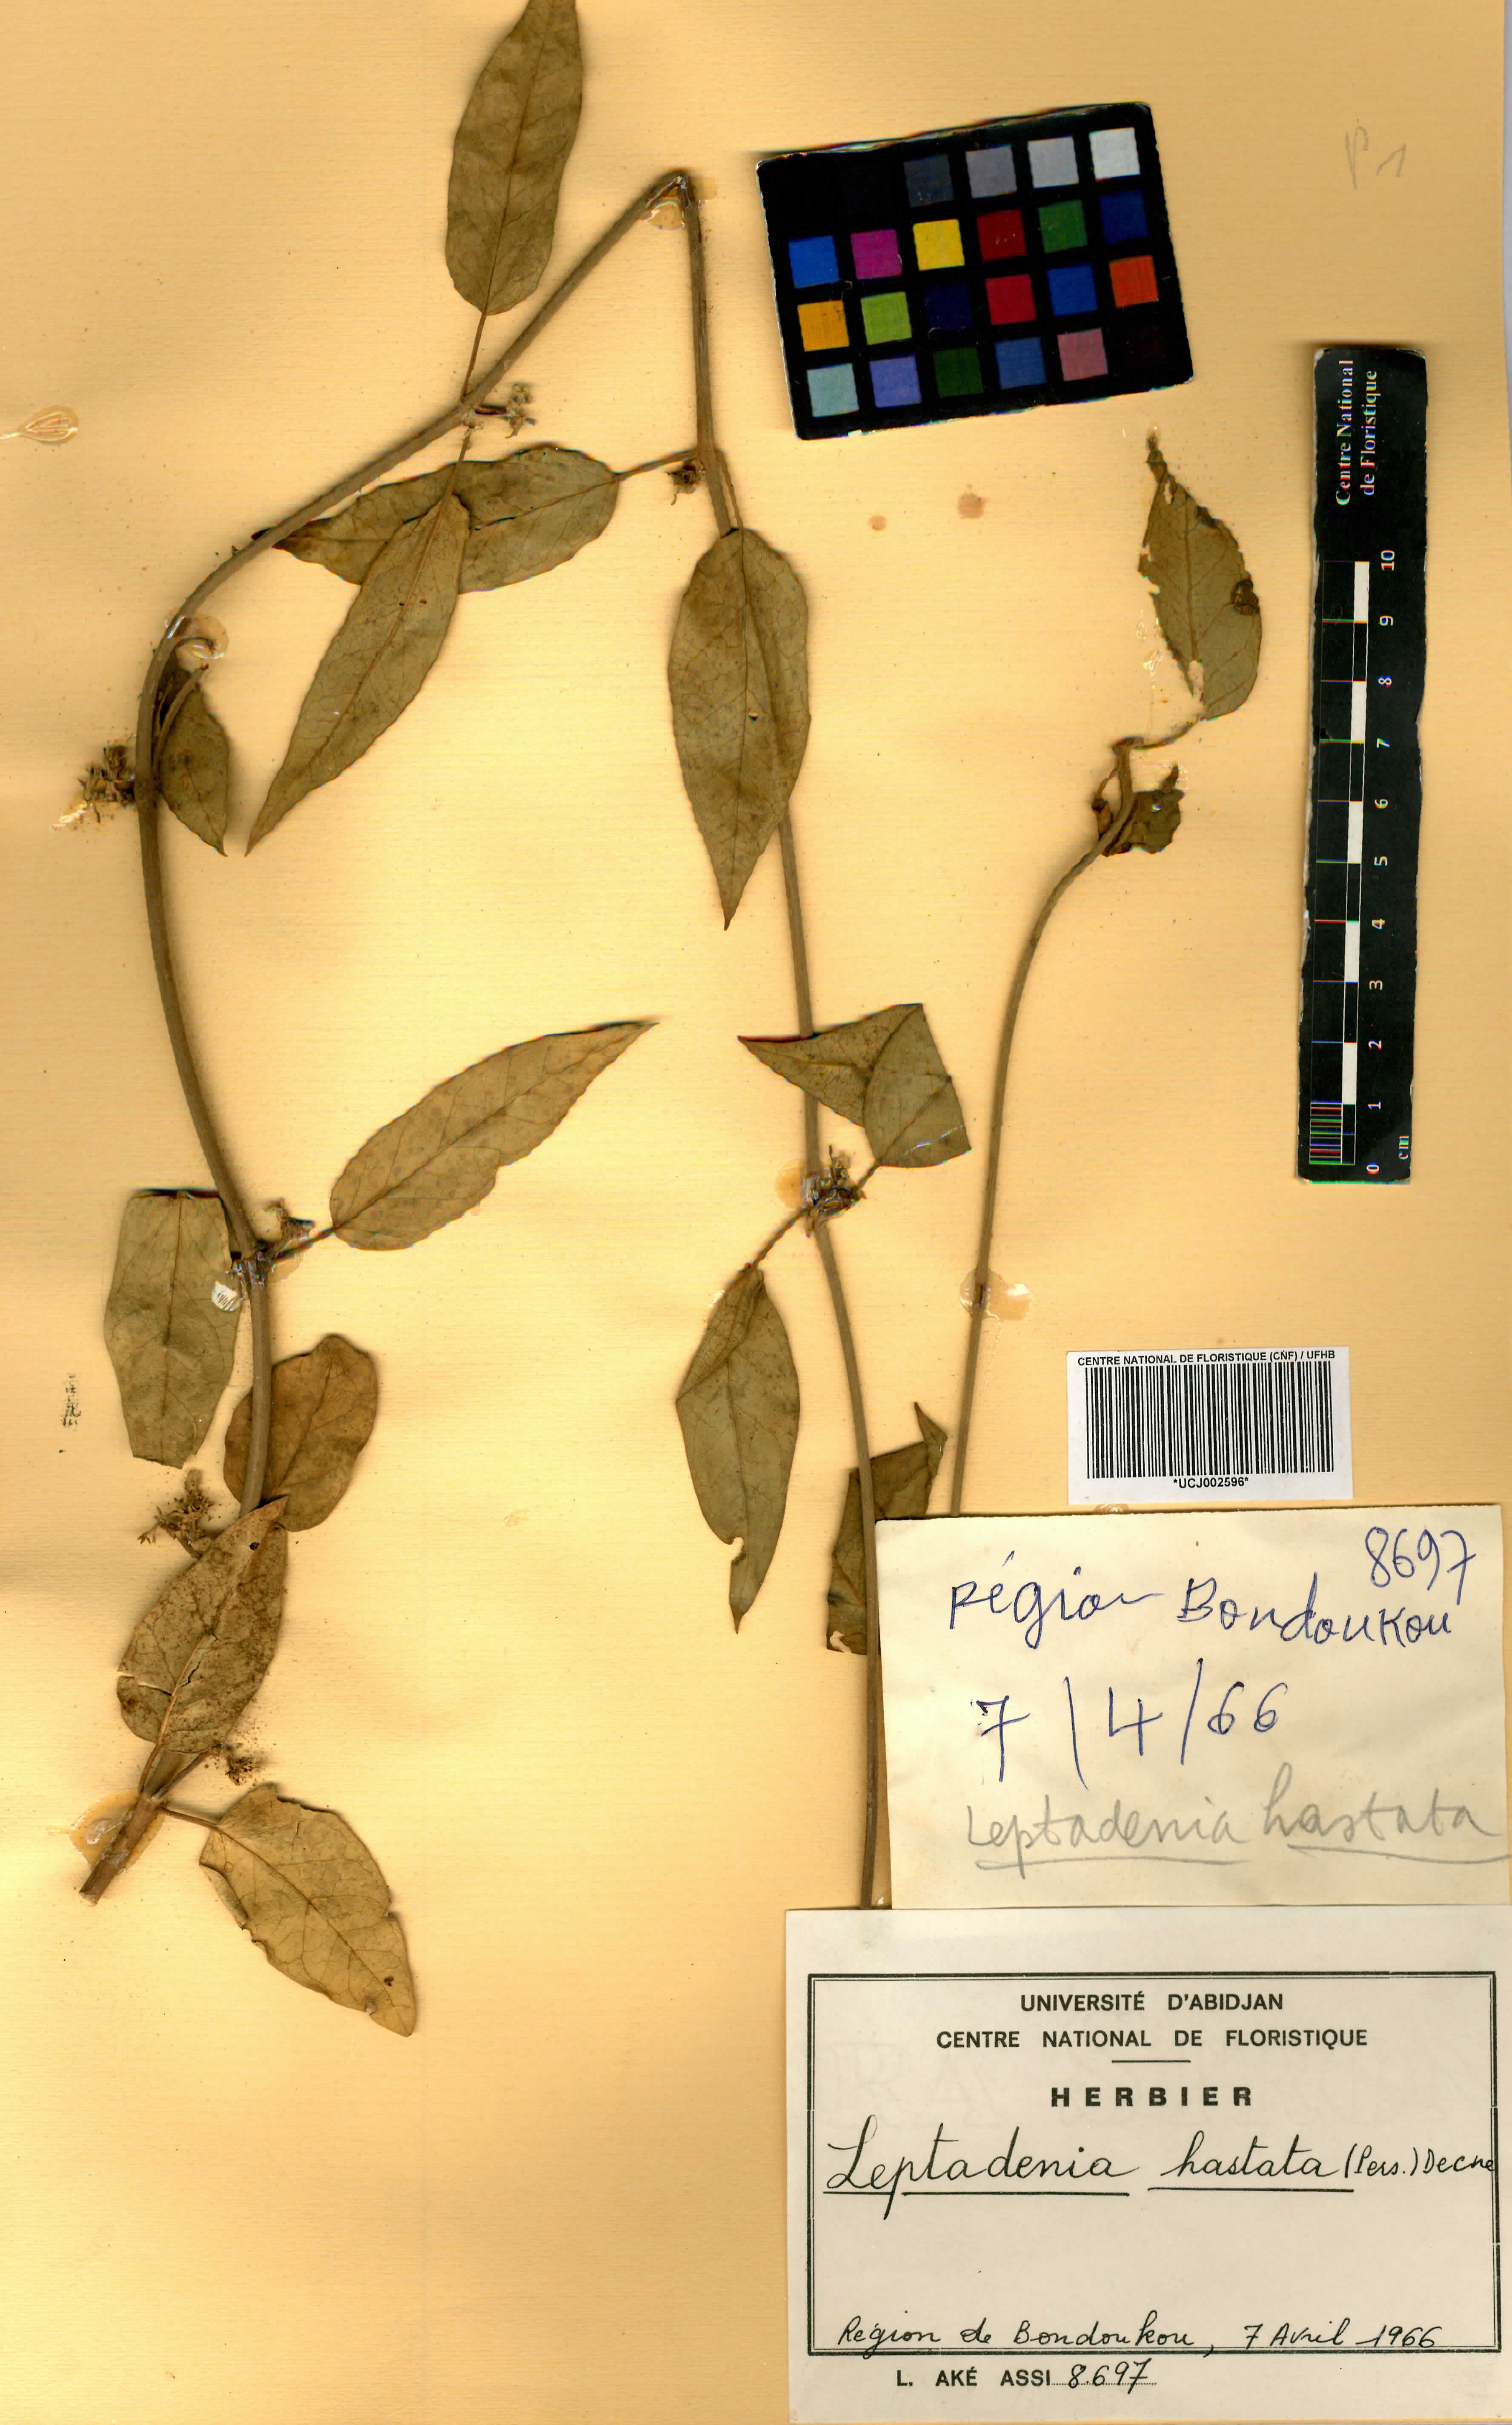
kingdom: Plantae
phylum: Tracheophyta
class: Magnoliopsida
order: Gentianales
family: Apocynaceae
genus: Leptadenia
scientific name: Leptadenia lanceolata
